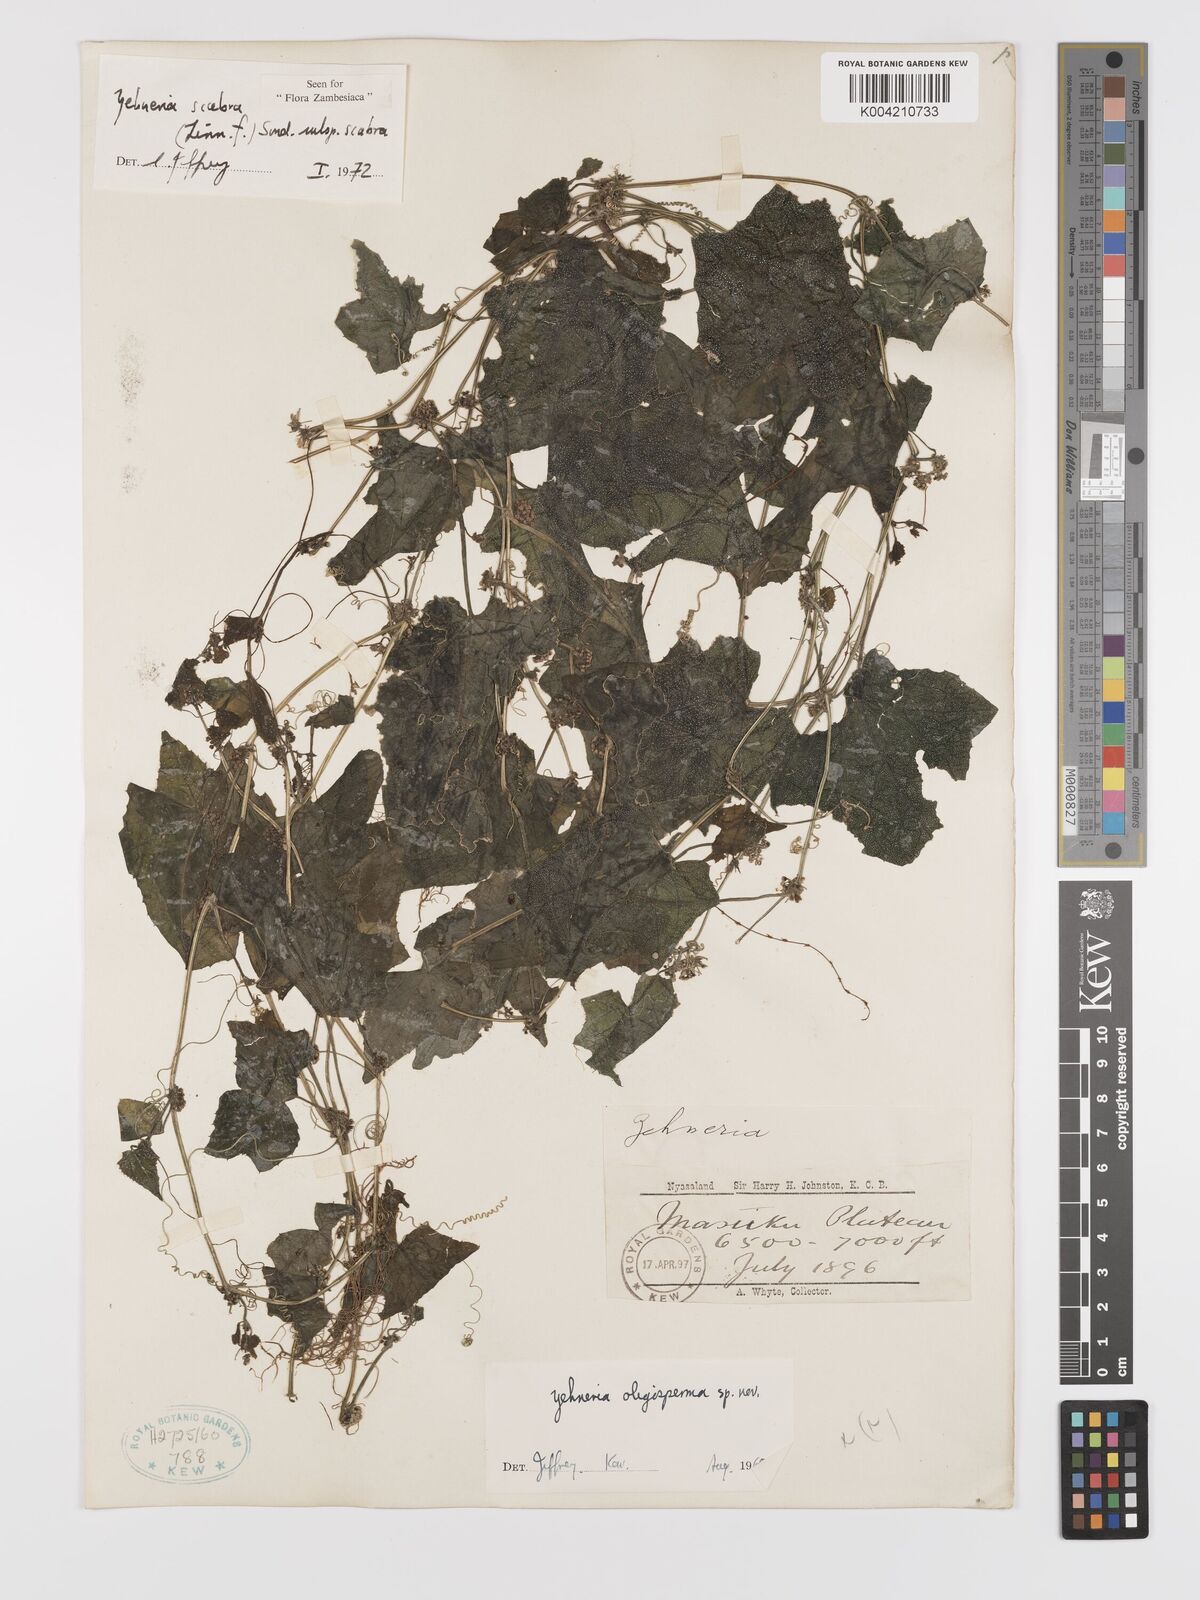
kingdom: Plantae
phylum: Tracheophyta
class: Magnoliopsida
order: Cucurbitales
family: Cucurbitaceae
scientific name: Cucurbitaceae
